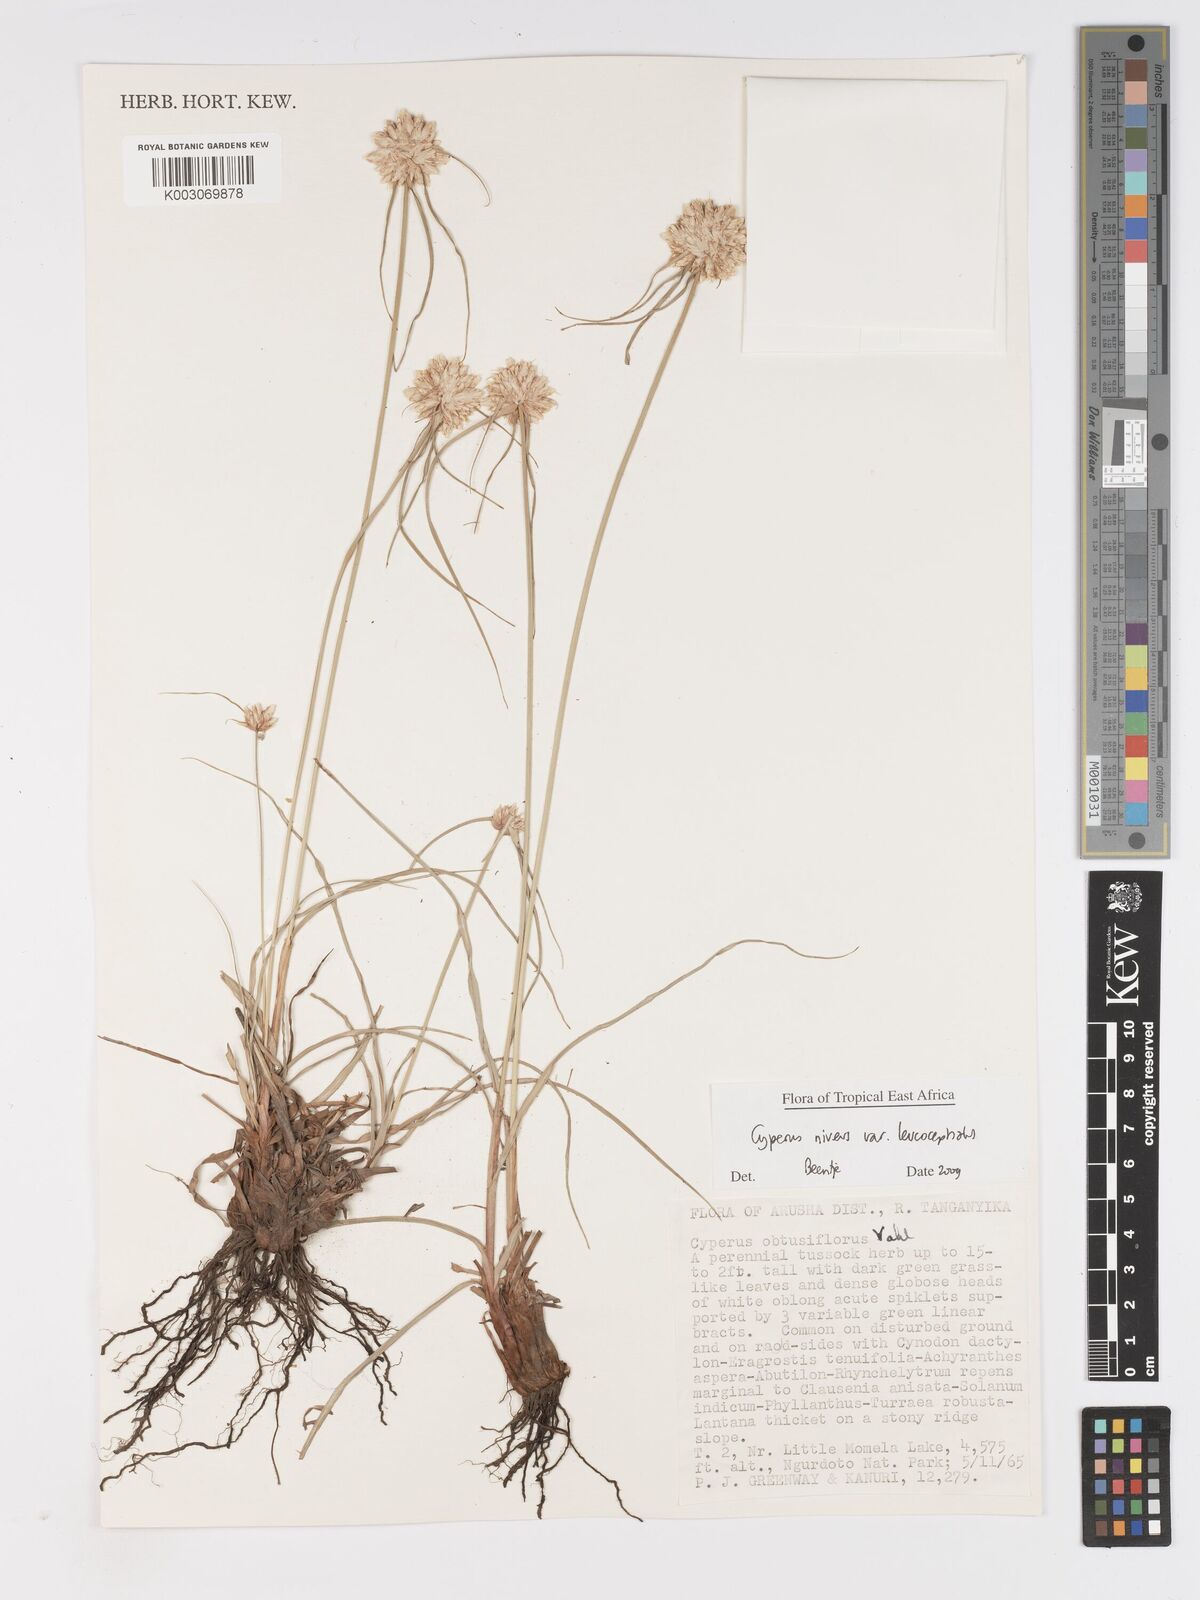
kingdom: Plantae
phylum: Tracheophyta
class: Liliopsida
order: Poales
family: Cyperaceae
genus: Cyperus
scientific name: Cyperus niveus
